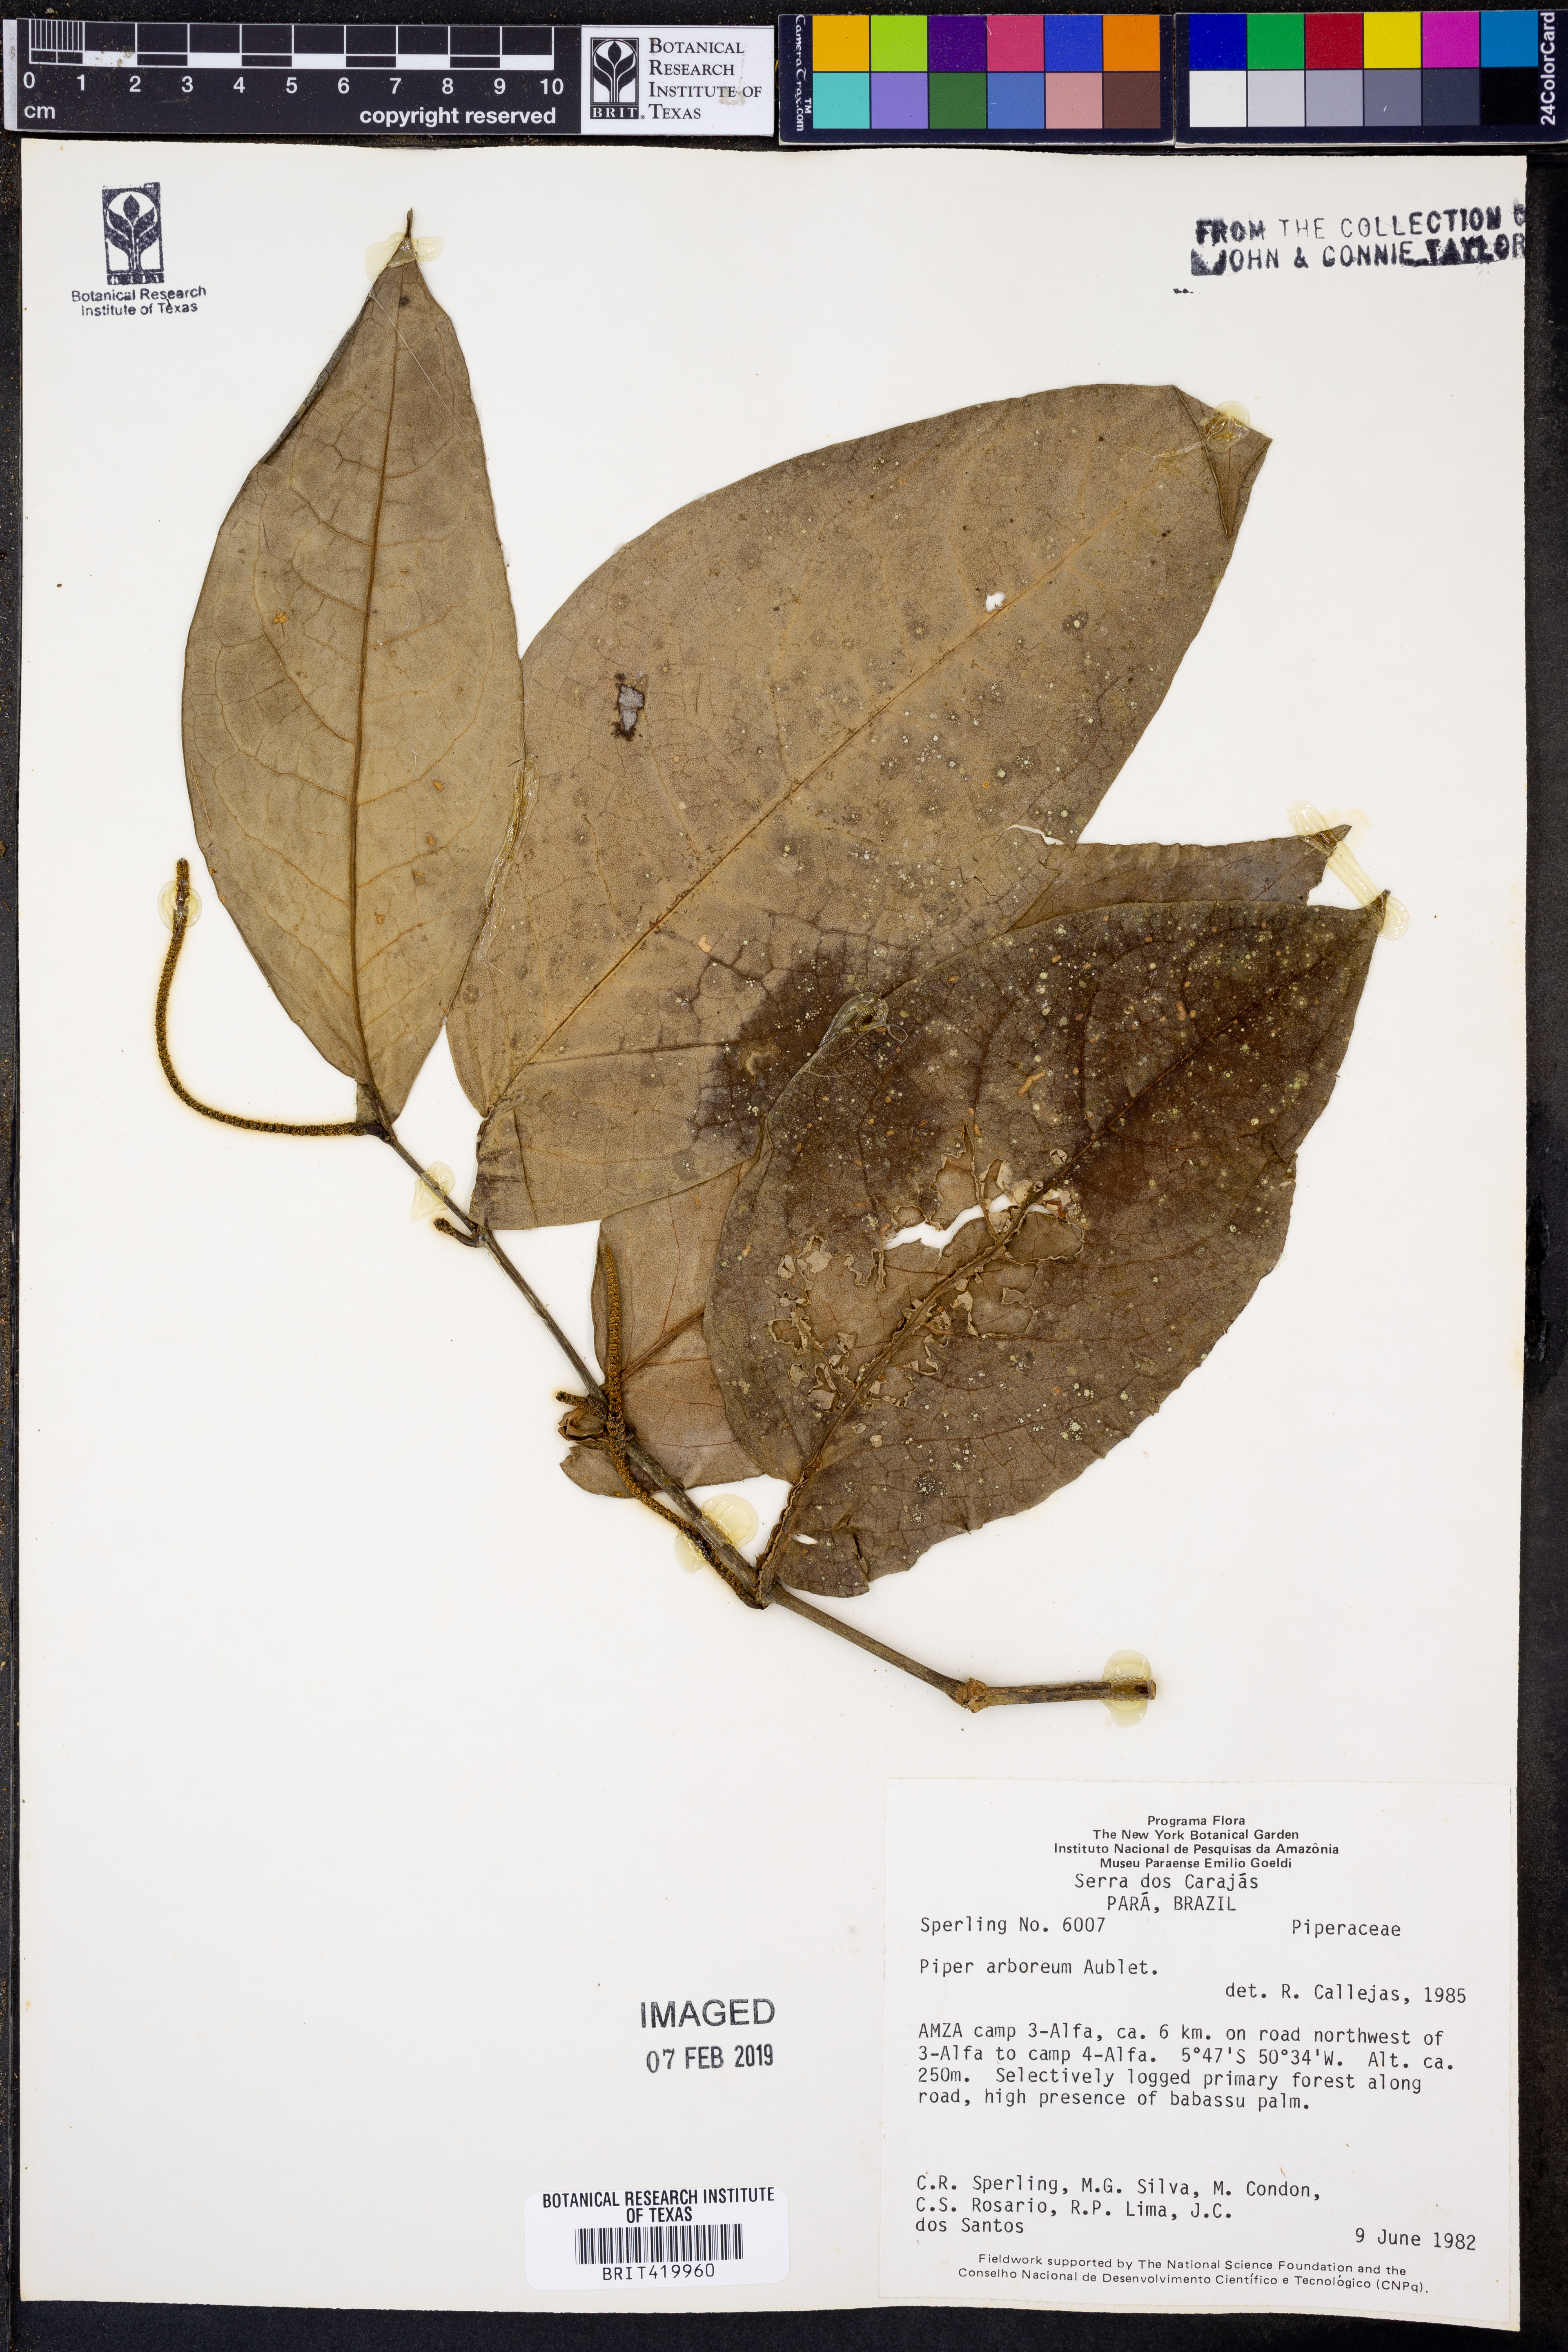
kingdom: Plantae
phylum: Tracheophyta
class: Magnoliopsida
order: Piperales
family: Piperaceae
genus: Piper
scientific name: Piper arboreum
